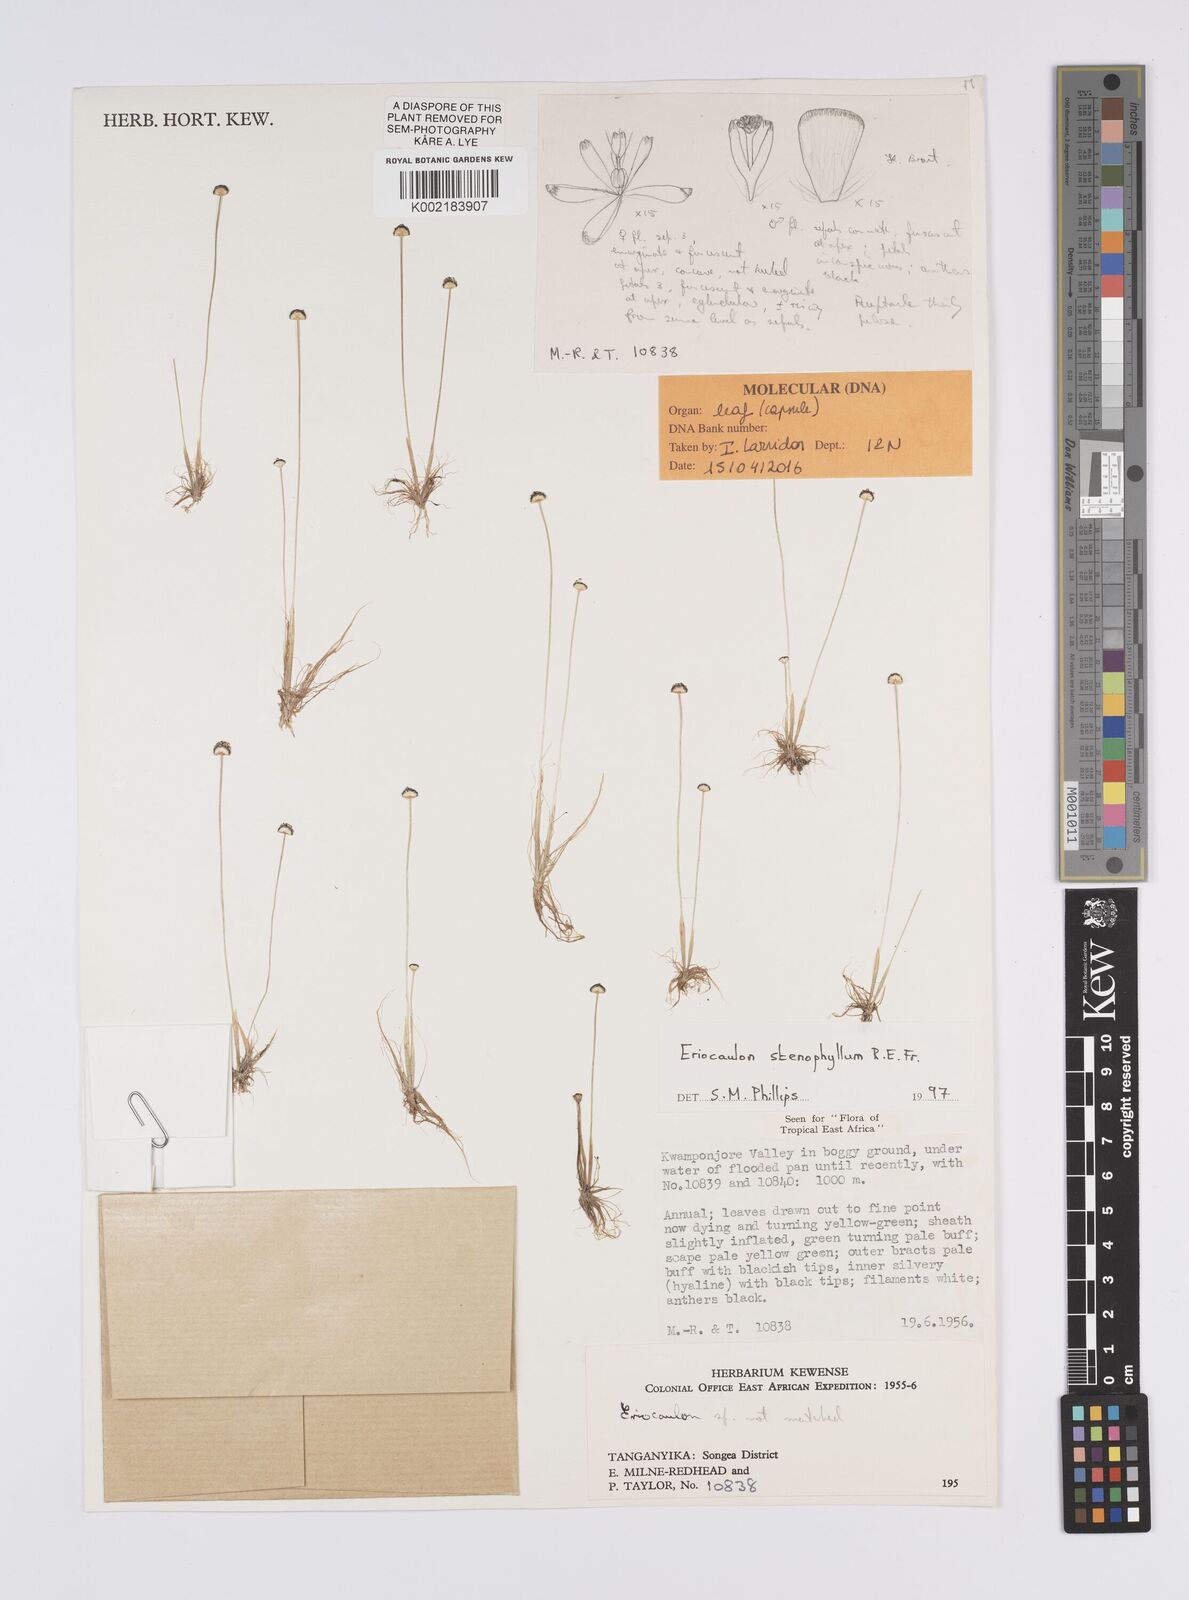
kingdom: Plantae
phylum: Tracheophyta
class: Liliopsida
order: Poales
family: Eriocaulaceae
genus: Eriocaulon
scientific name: Eriocaulon stenophyllum
